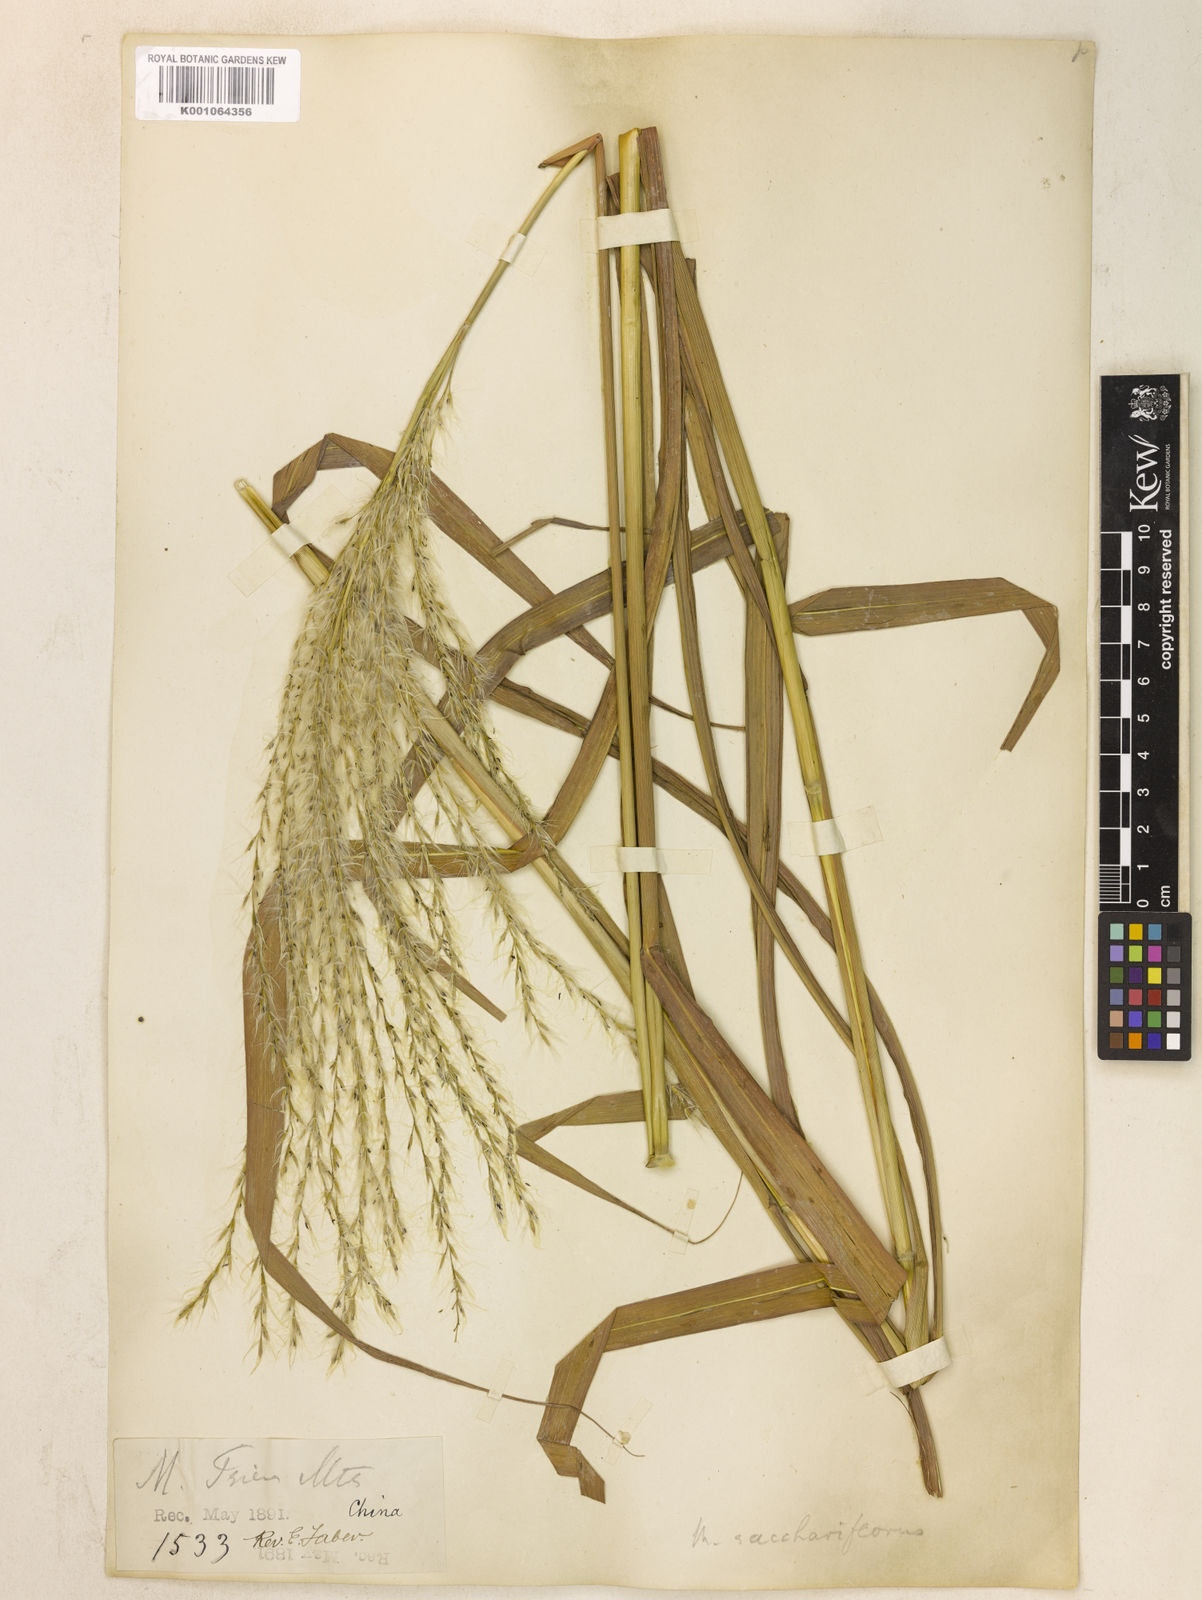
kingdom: Plantae
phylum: Tracheophyta
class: Liliopsida
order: Poales
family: Poaceae
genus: Miscanthus
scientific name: Miscanthus
